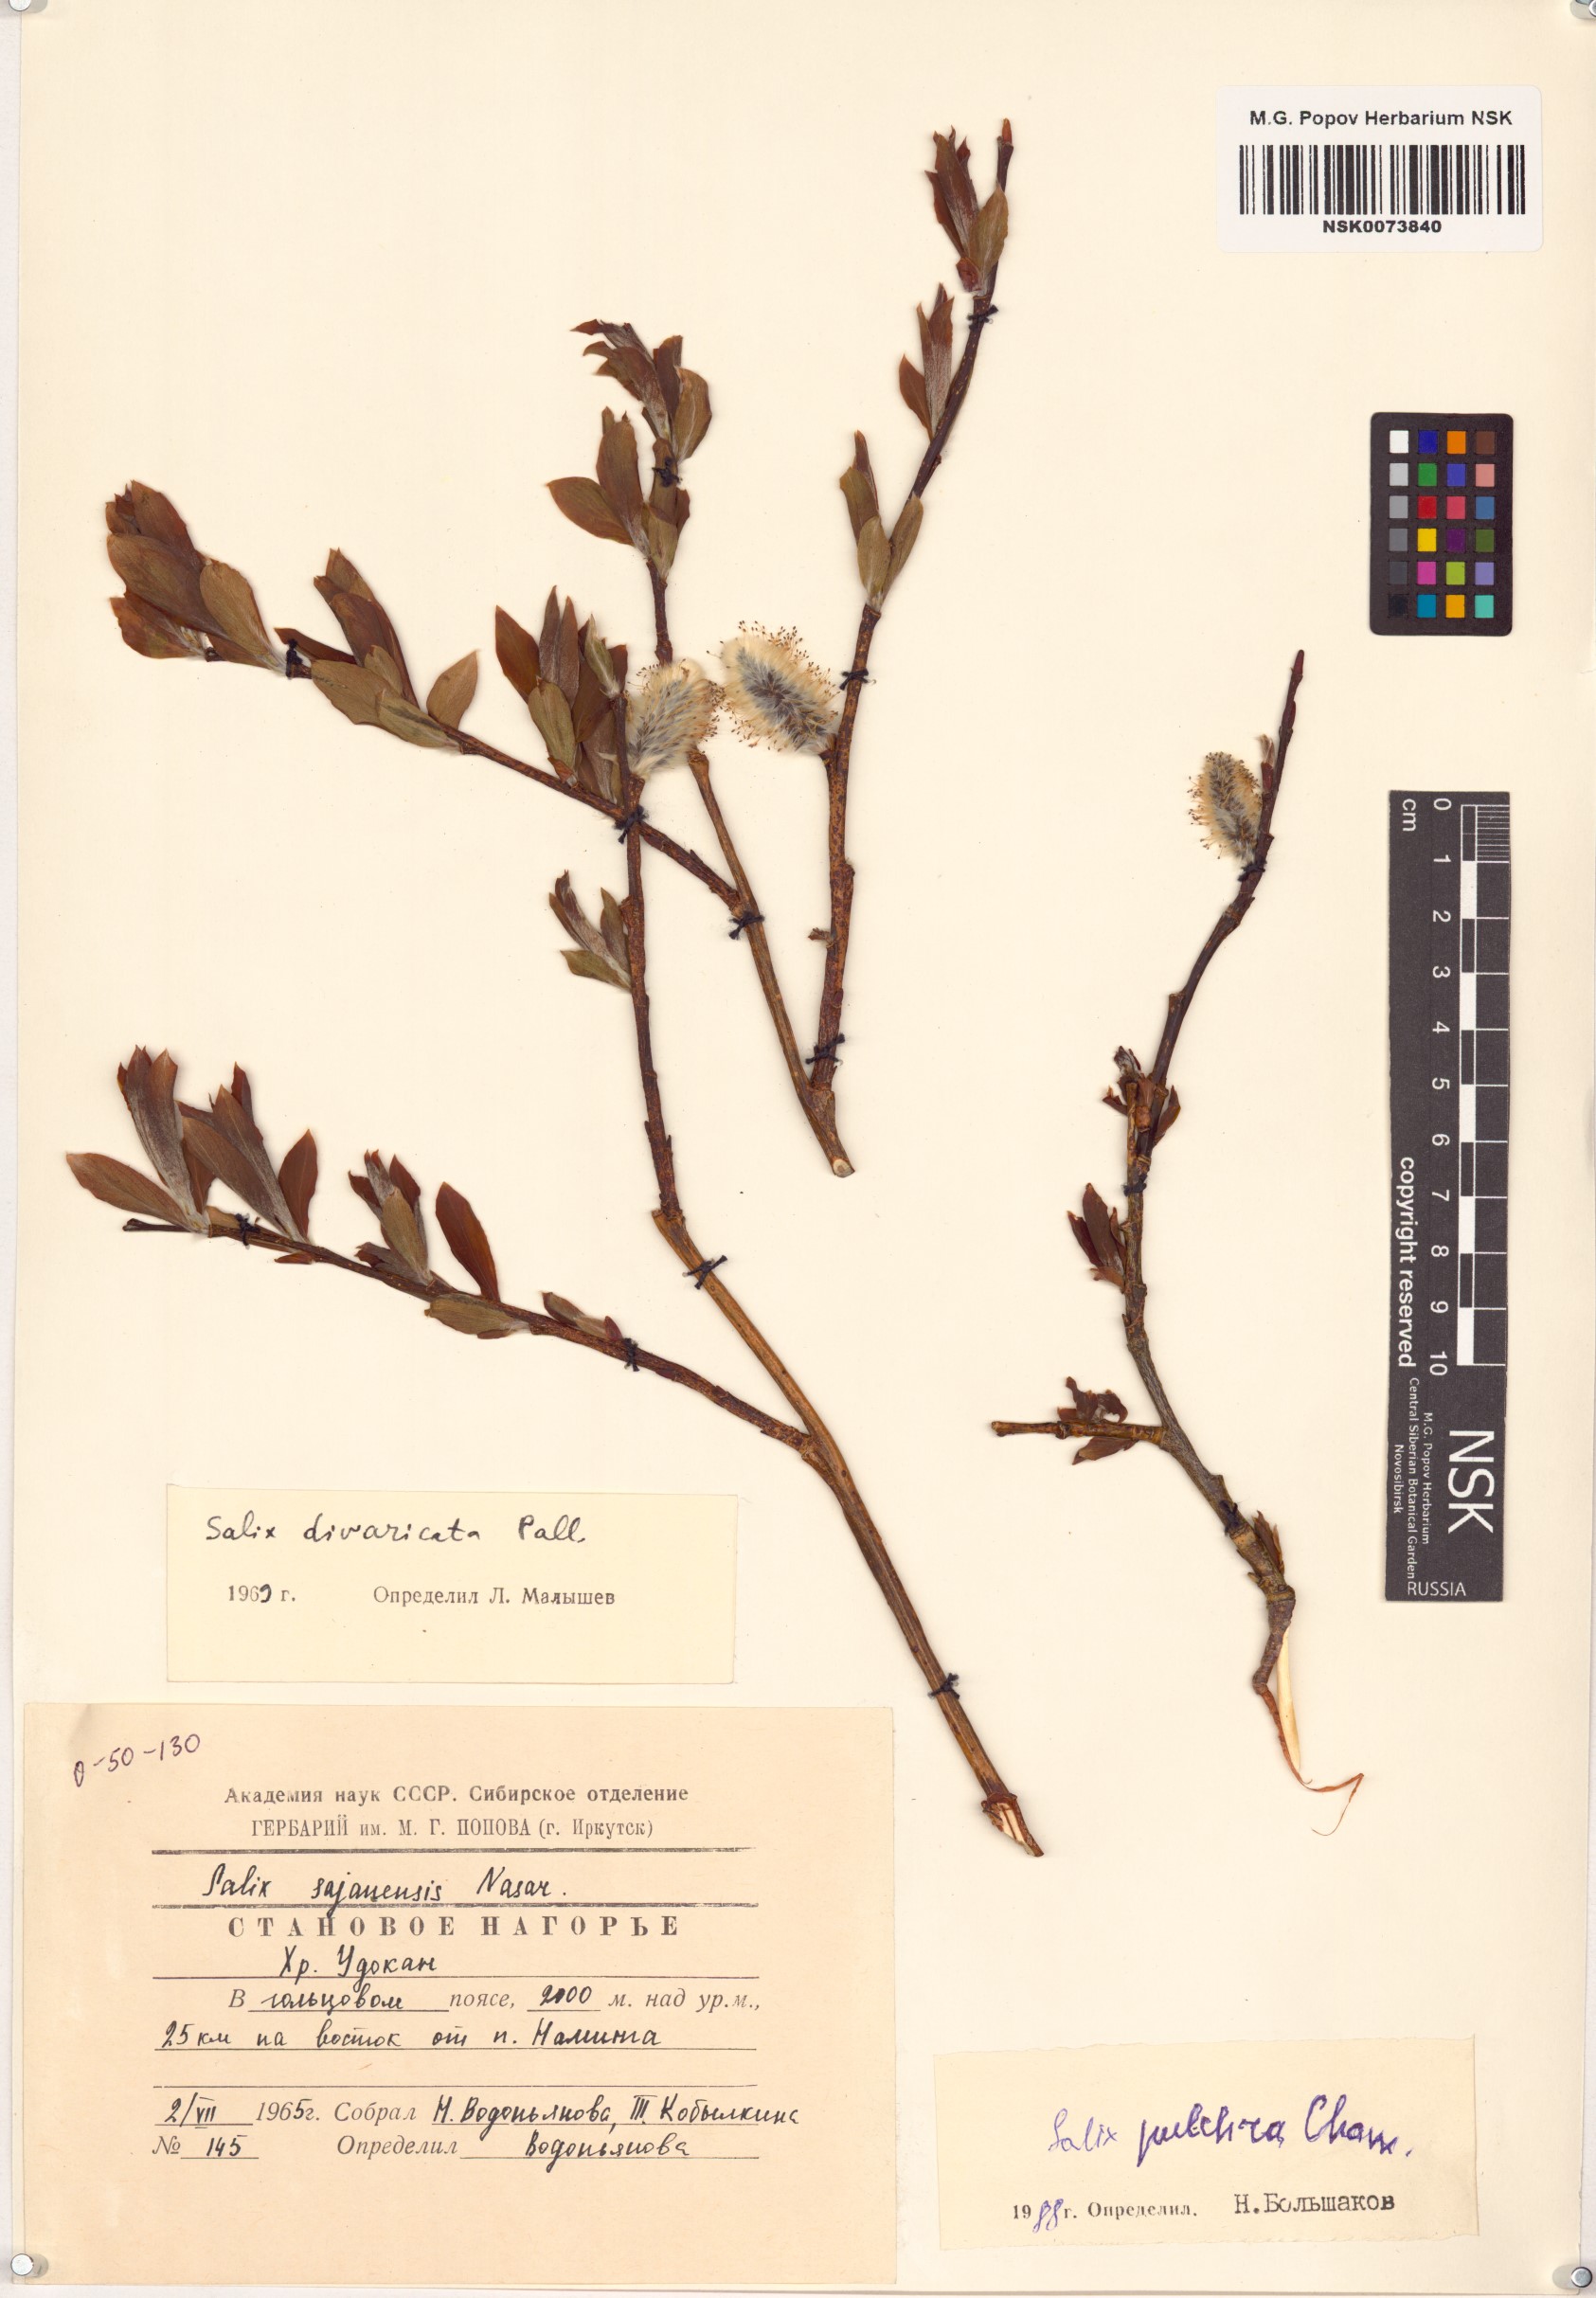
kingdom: Plantae
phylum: Tracheophyta
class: Magnoliopsida
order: Malpighiales
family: Salicaceae
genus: Salix
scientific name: Salix pulchra
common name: Diamond-leaved willow
